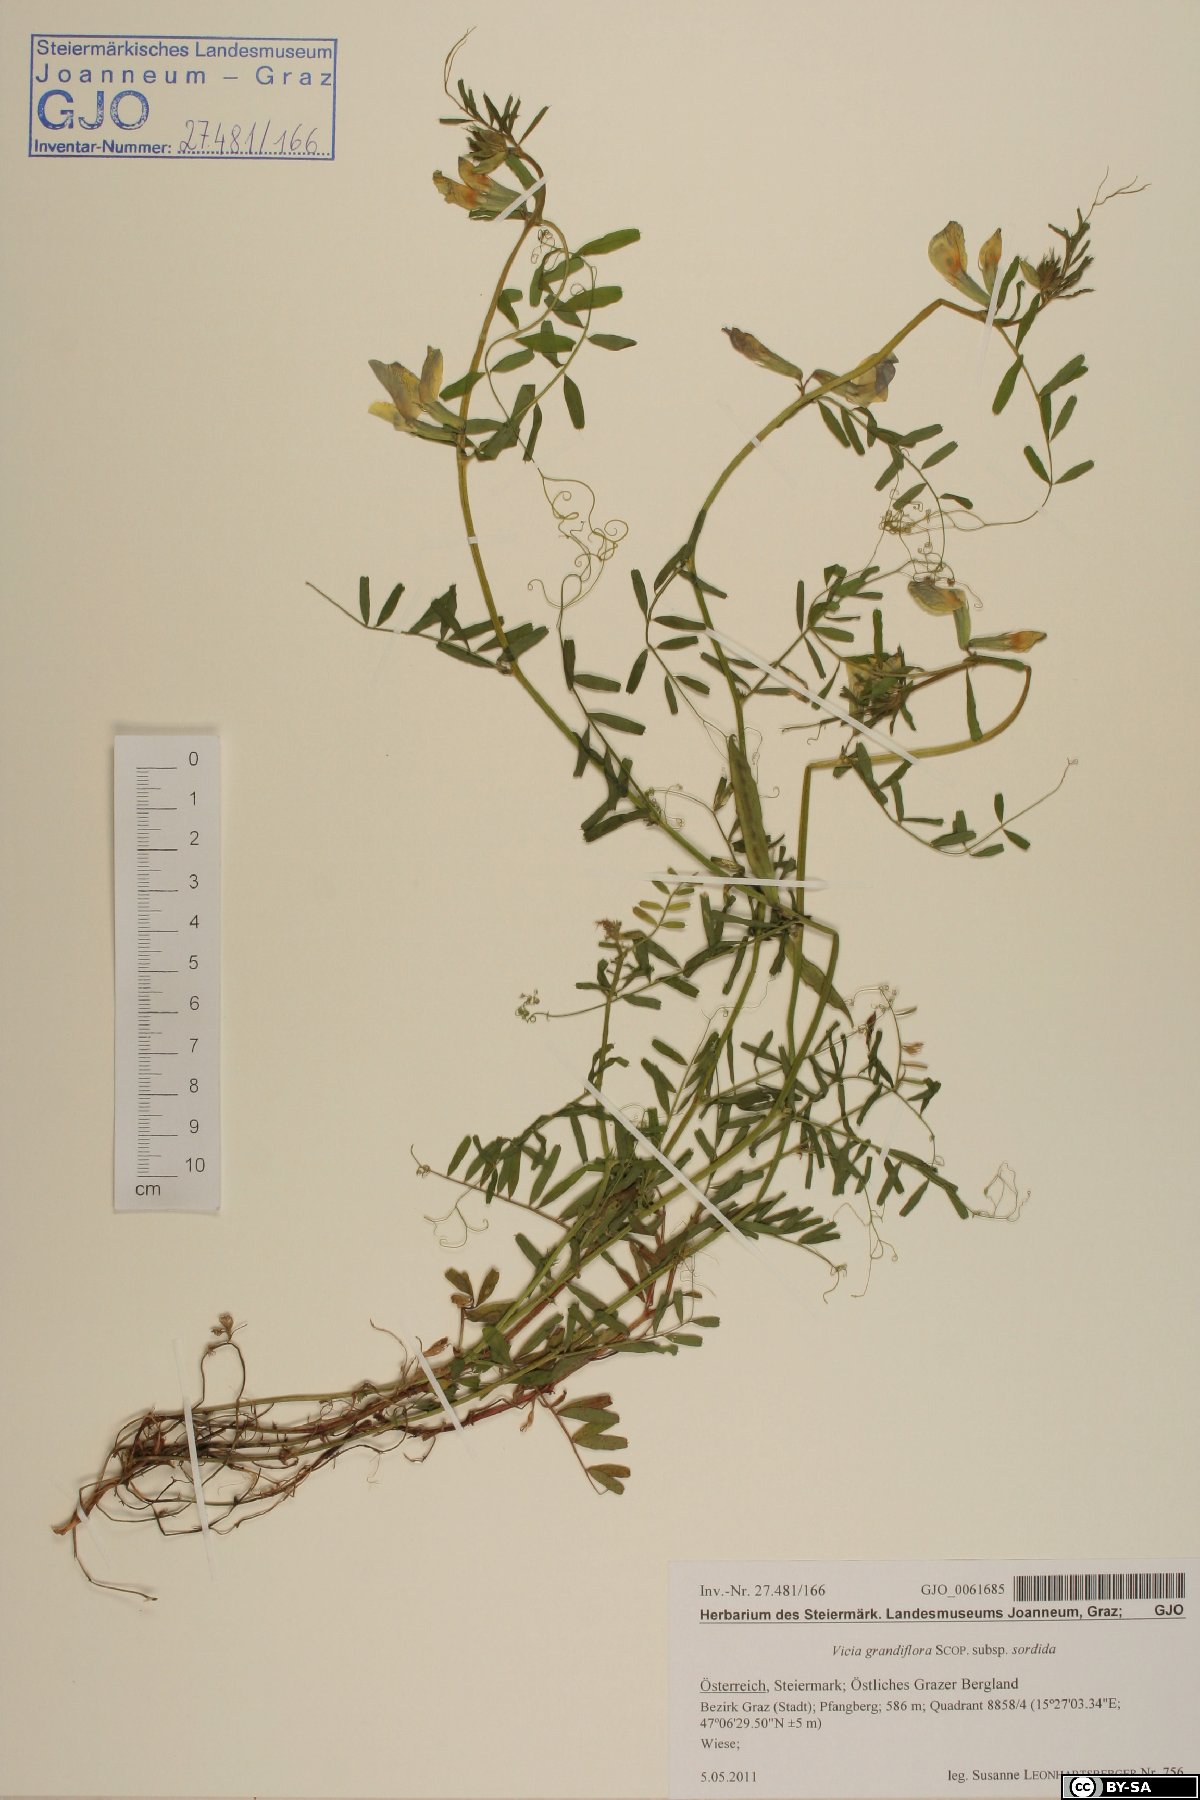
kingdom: Plantae
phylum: Tracheophyta
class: Magnoliopsida
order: Fabales
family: Fabaceae
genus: Vicia
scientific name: Vicia grandiflora
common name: Large yellow vetch
